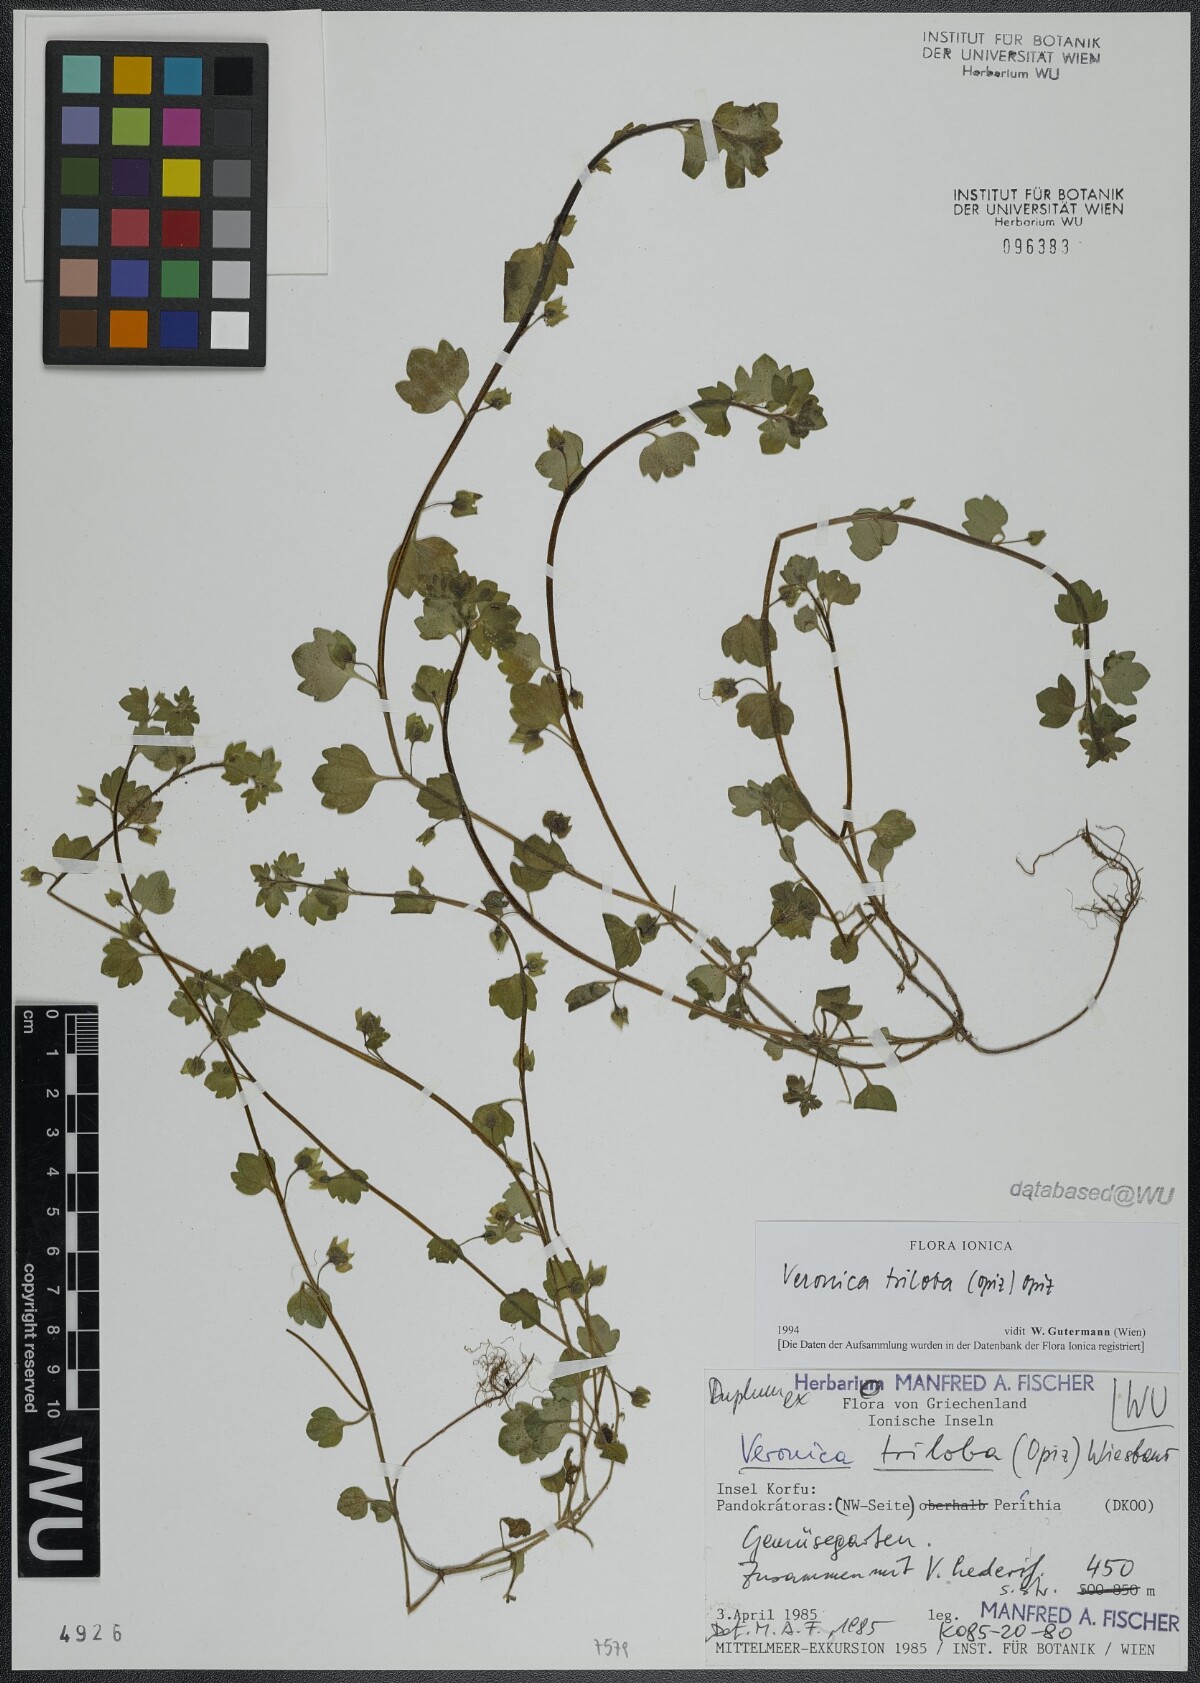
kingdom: Plantae
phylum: Tracheophyta
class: Magnoliopsida
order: Lamiales
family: Plantaginaceae
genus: Veronica
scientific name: Veronica triloba
